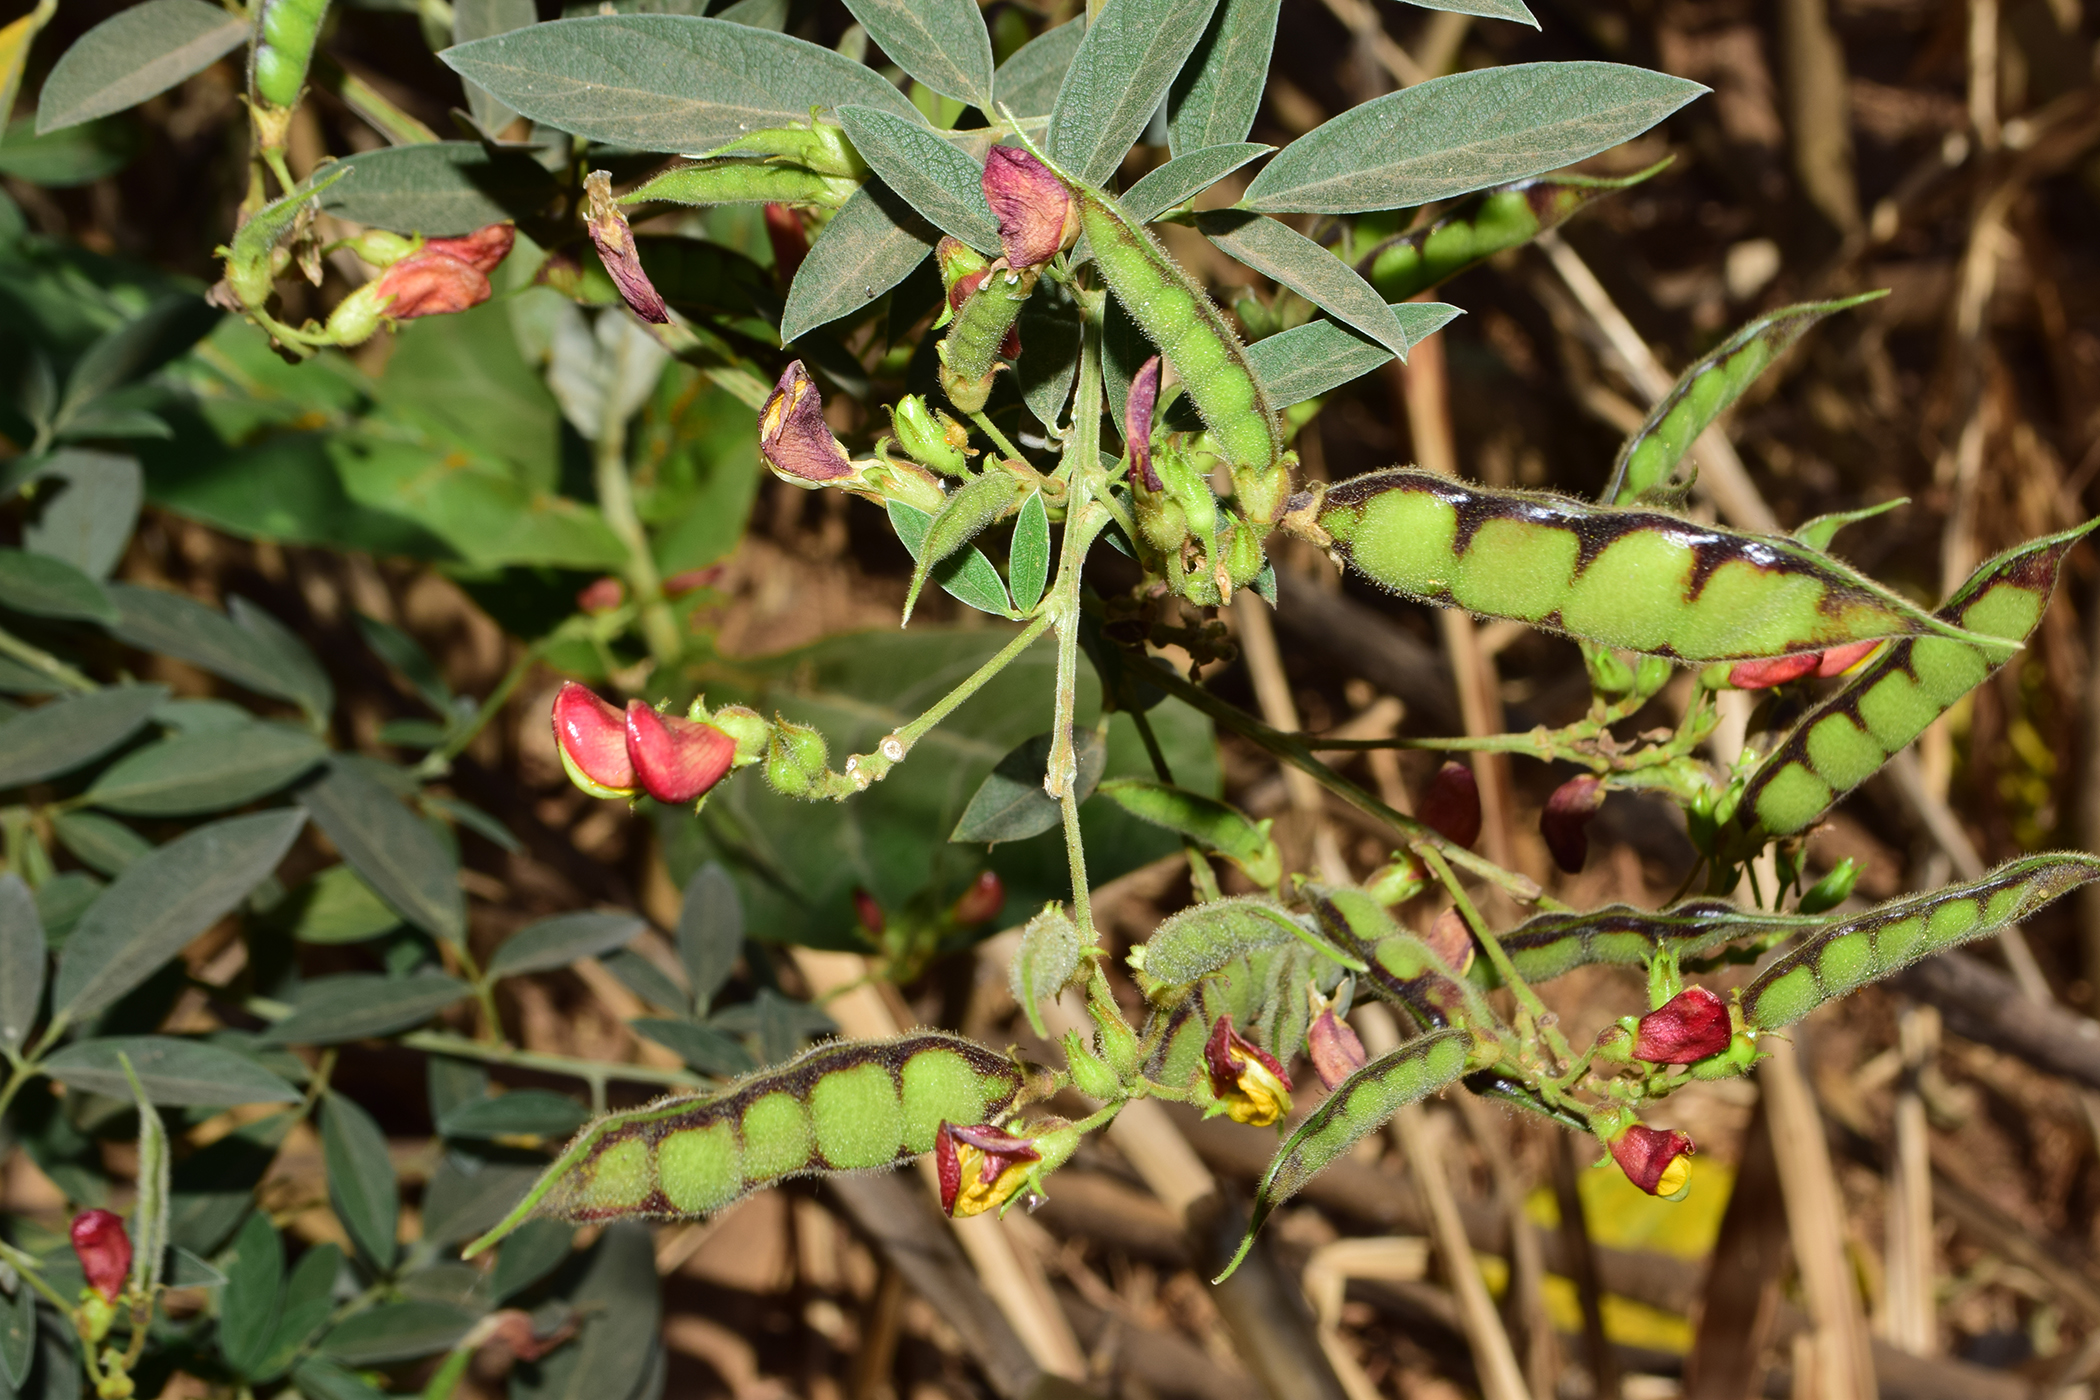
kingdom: Plantae
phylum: Tracheophyta
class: Magnoliopsida
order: Fabales
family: Fabaceae
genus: Cajanus
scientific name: Cajanus cajan
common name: Pigeonpea
